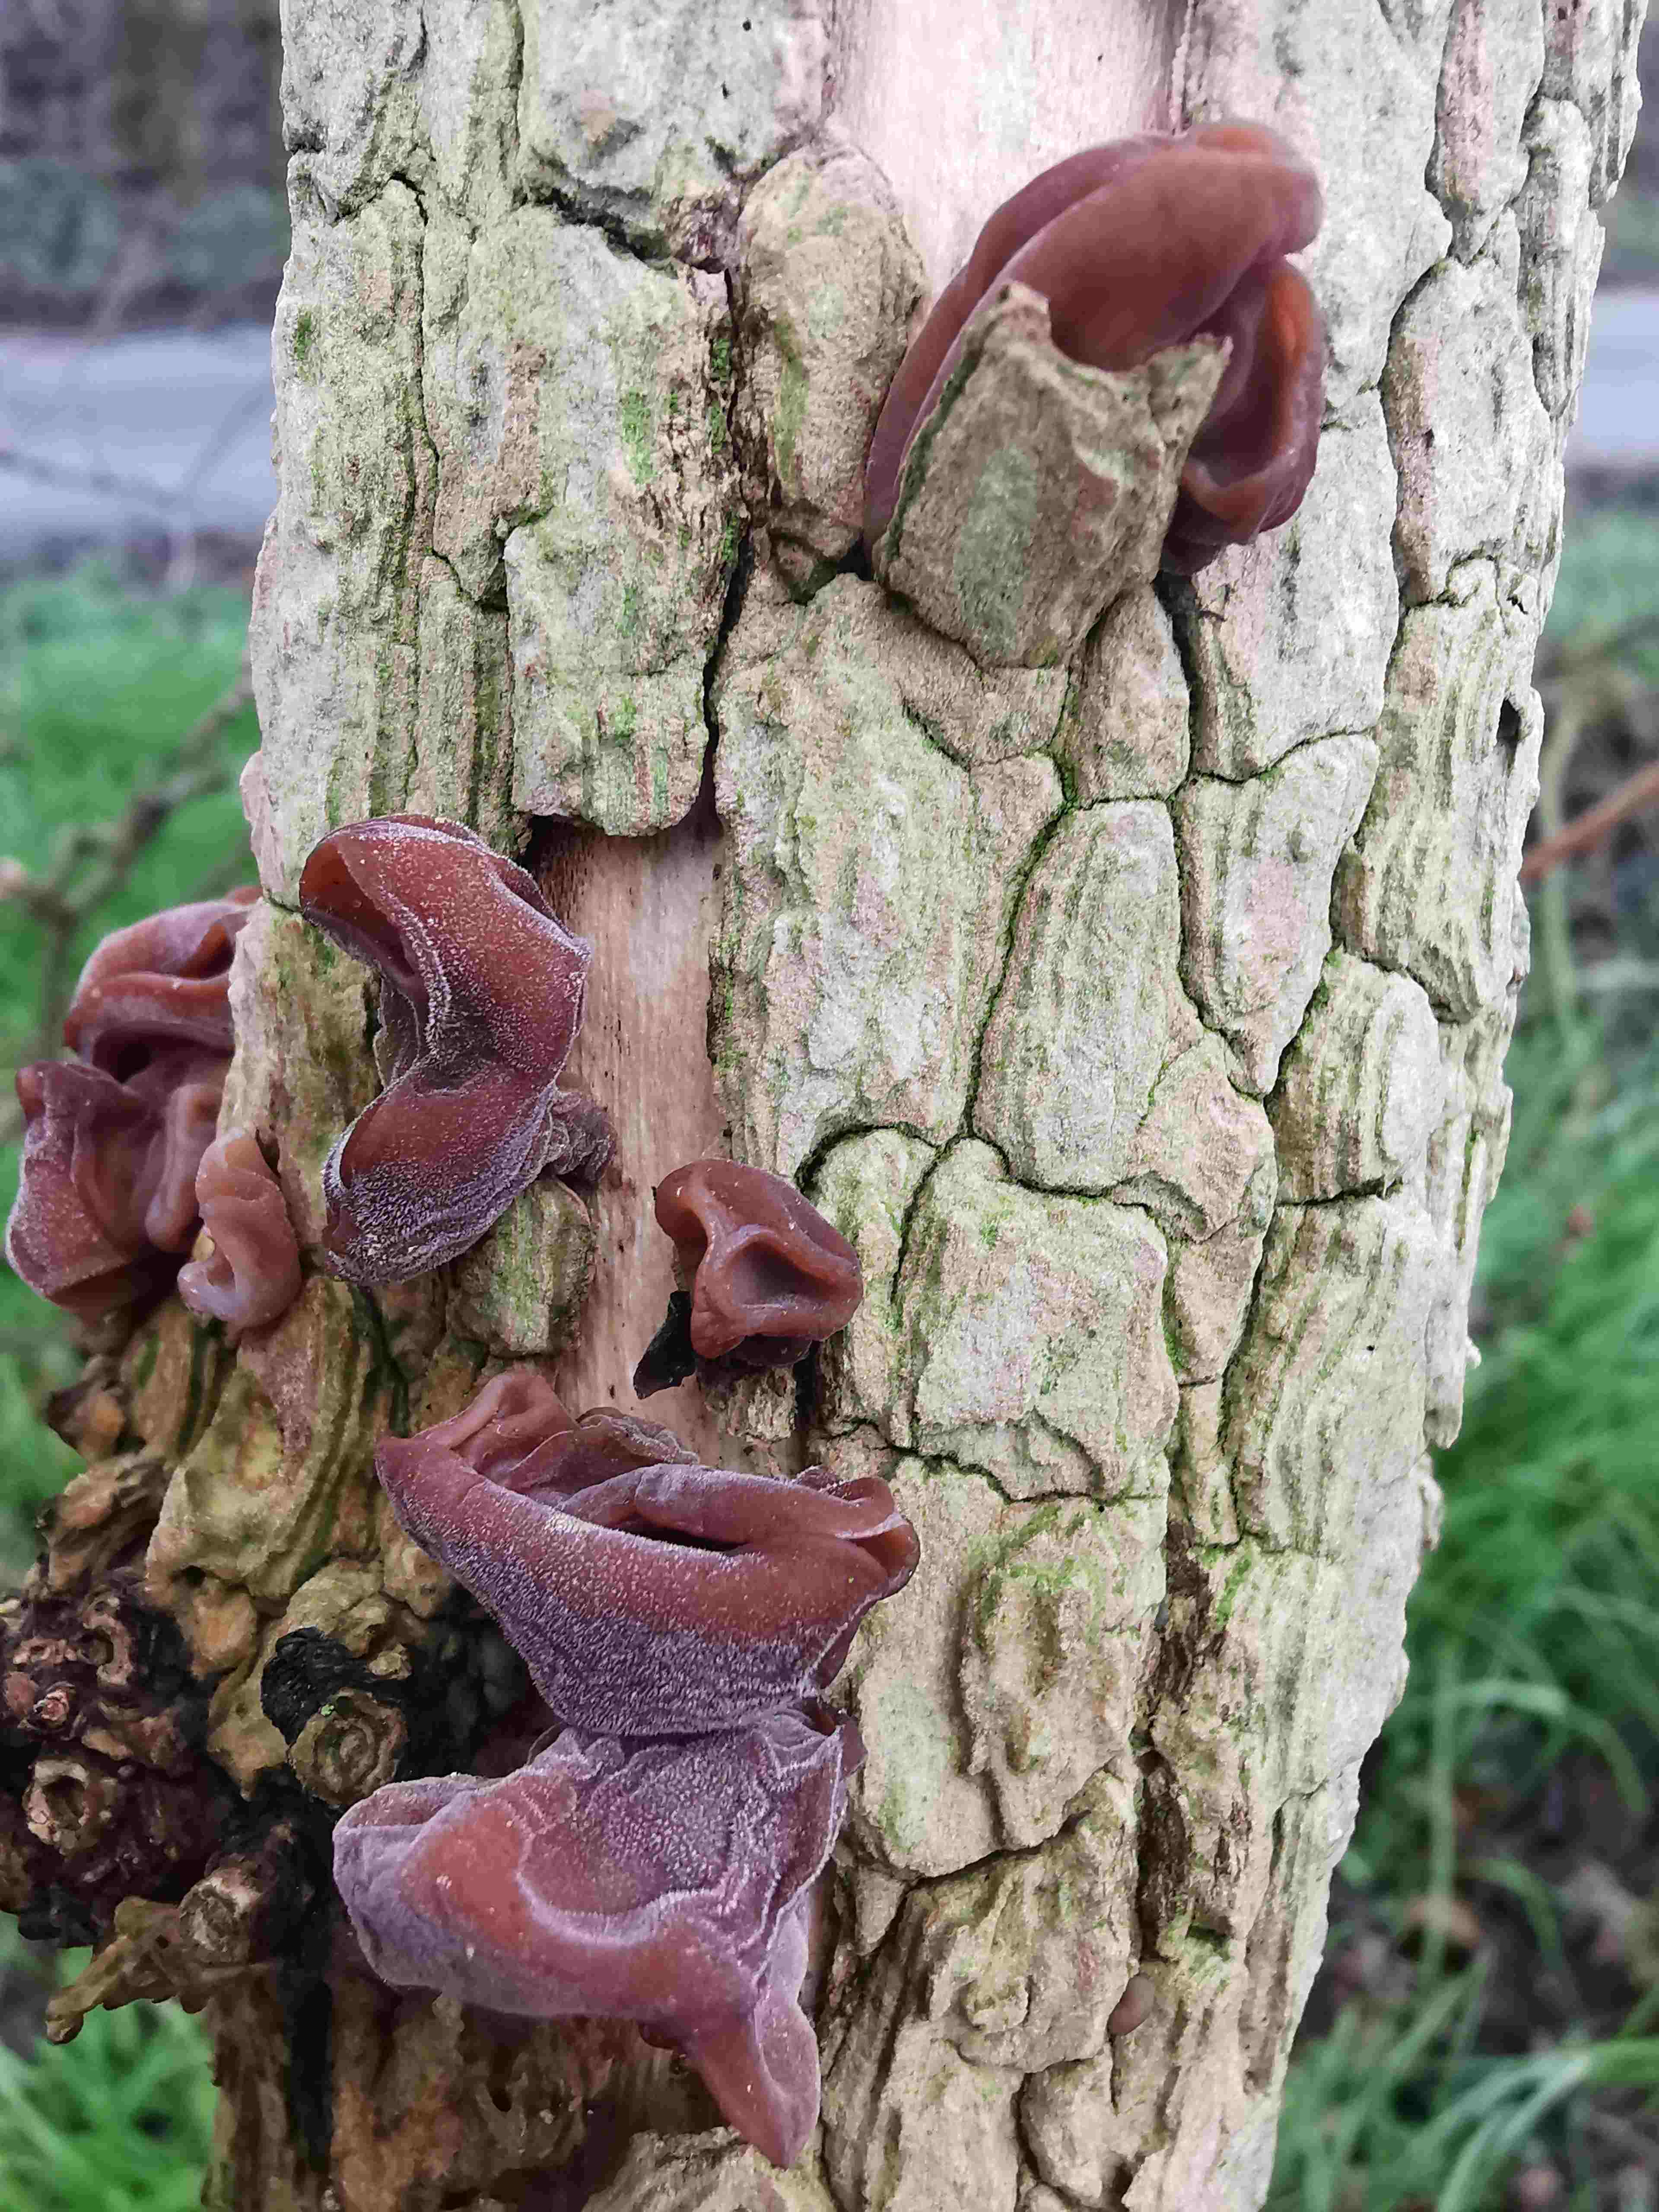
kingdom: Fungi
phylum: Basidiomycota
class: Agaricomycetes
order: Auriculariales
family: Auriculariaceae
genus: Auricularia
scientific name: Auricularia auricula-judae
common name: almindelig judasøre
